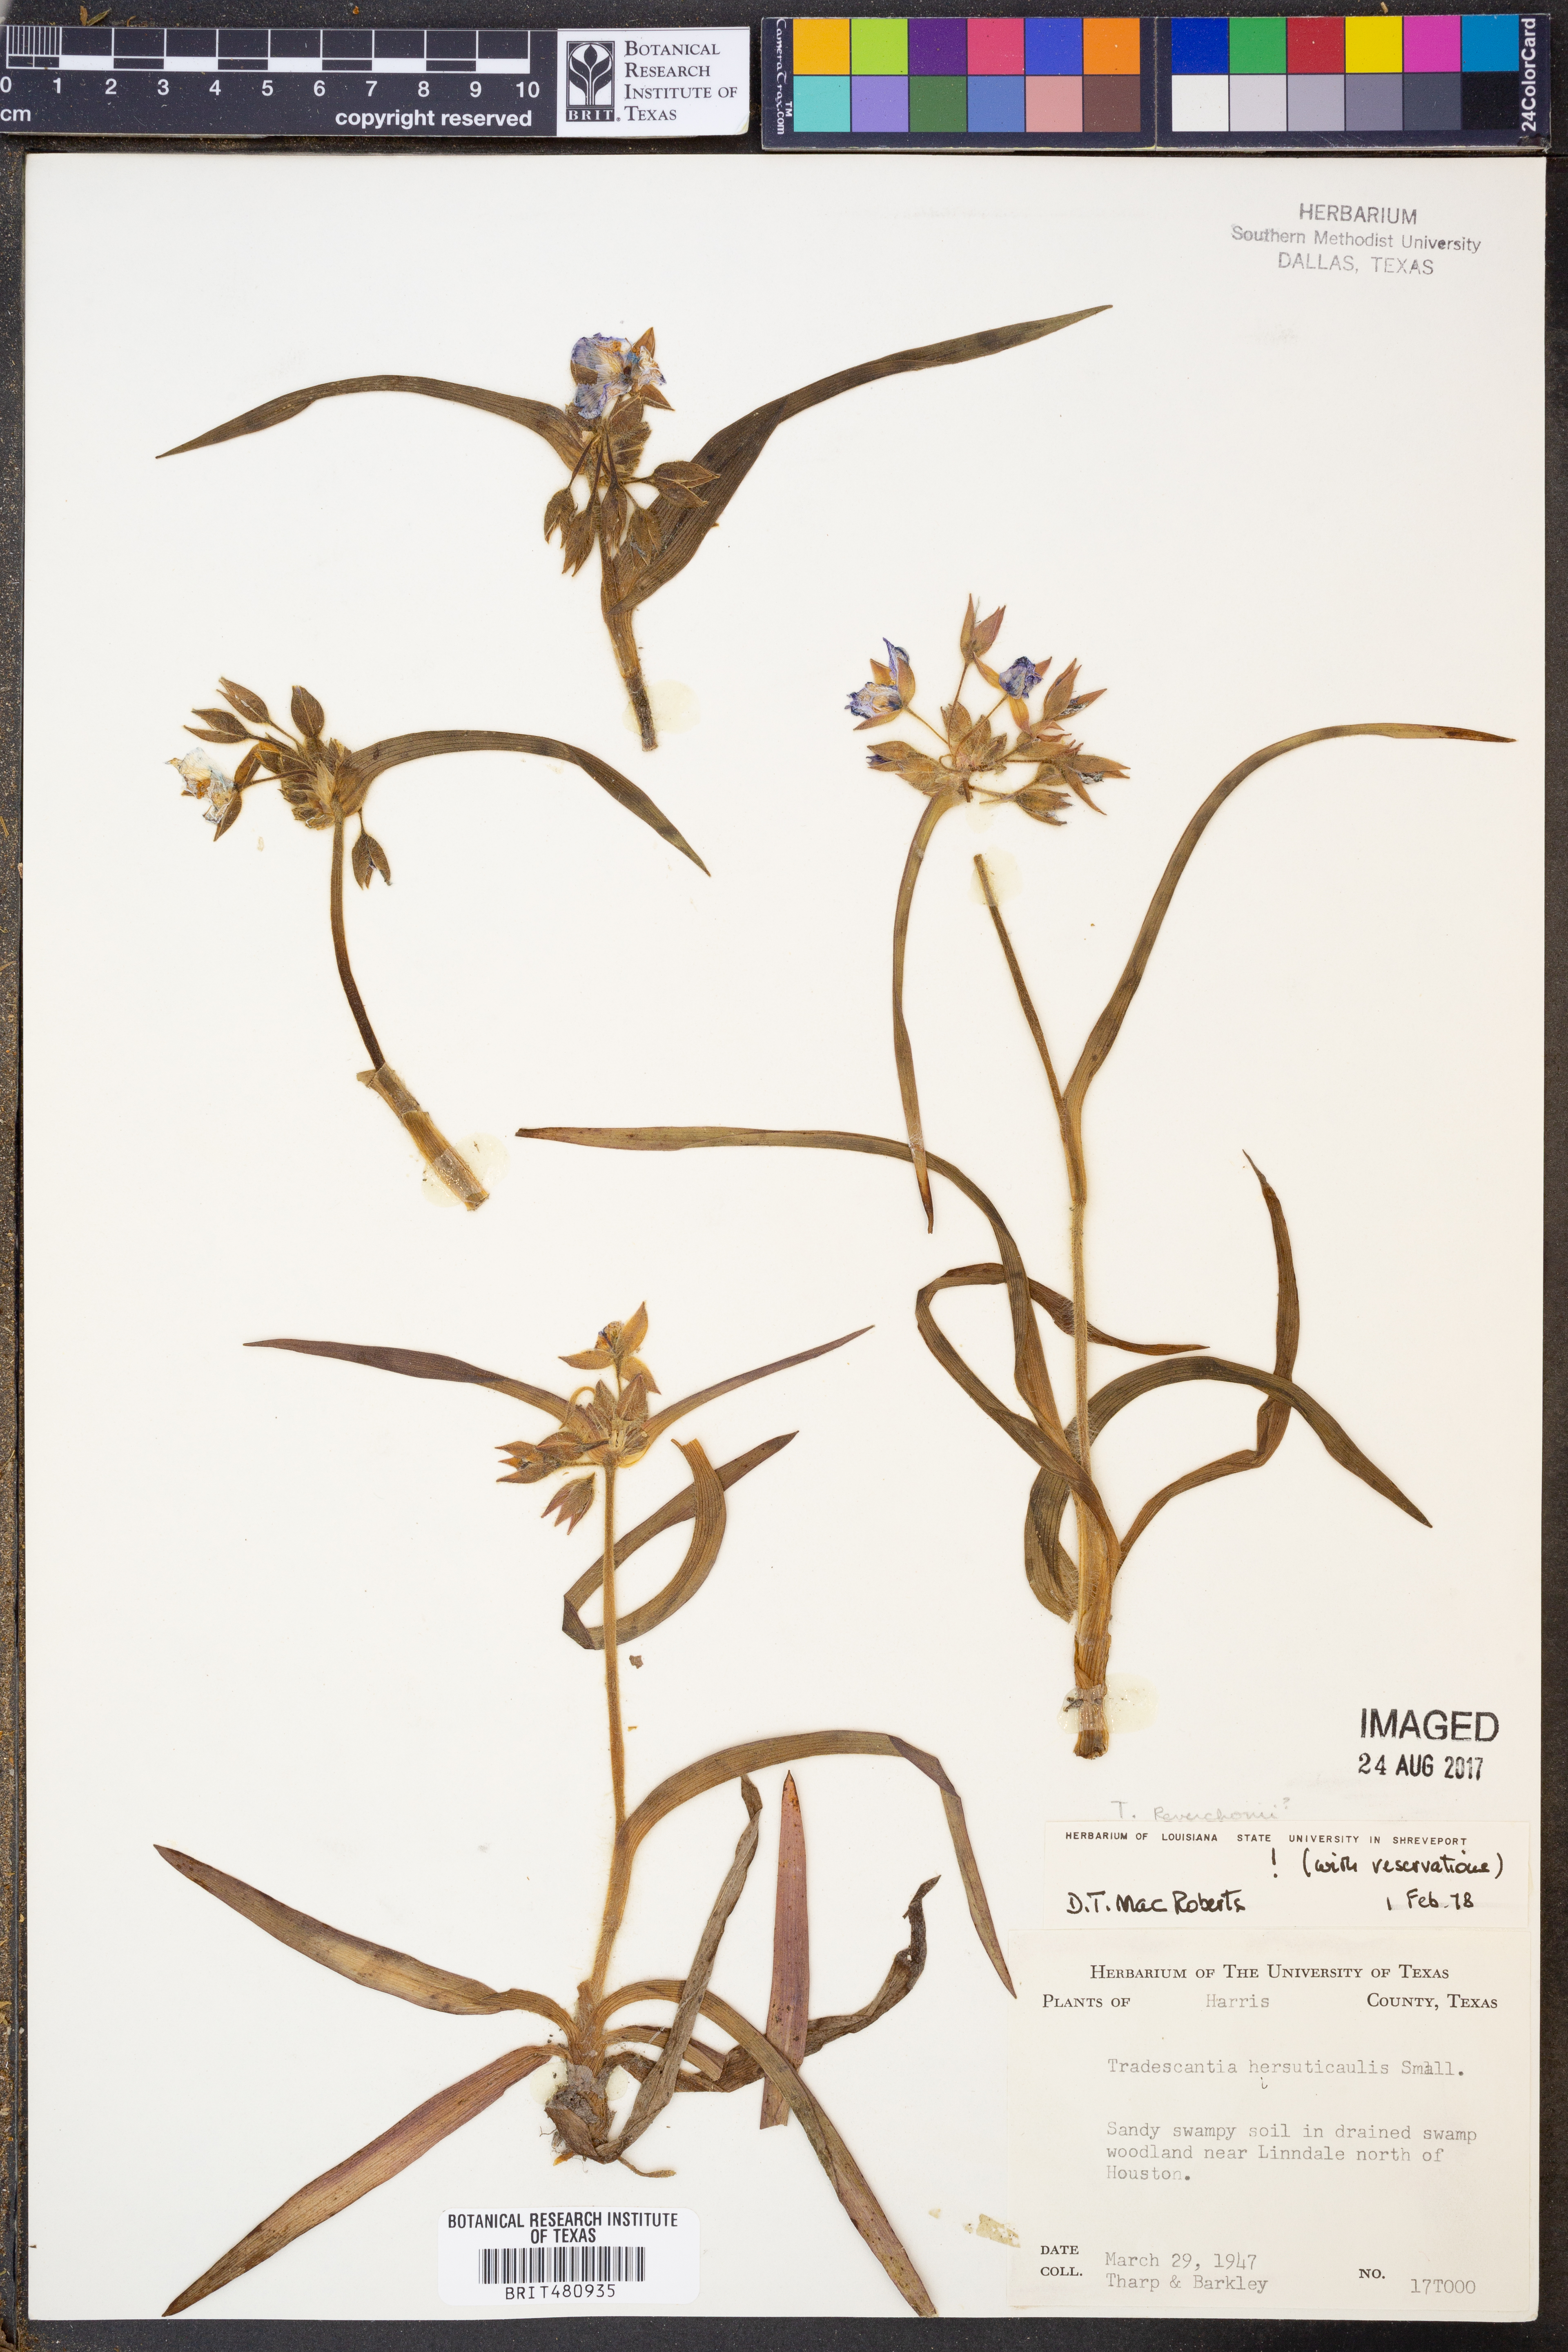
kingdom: Plantae
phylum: Tracheophyta
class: Liliopsida
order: Commelinales
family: Commelinaceae
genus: Tradescantia
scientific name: Tradescantia hirsuticaulis
